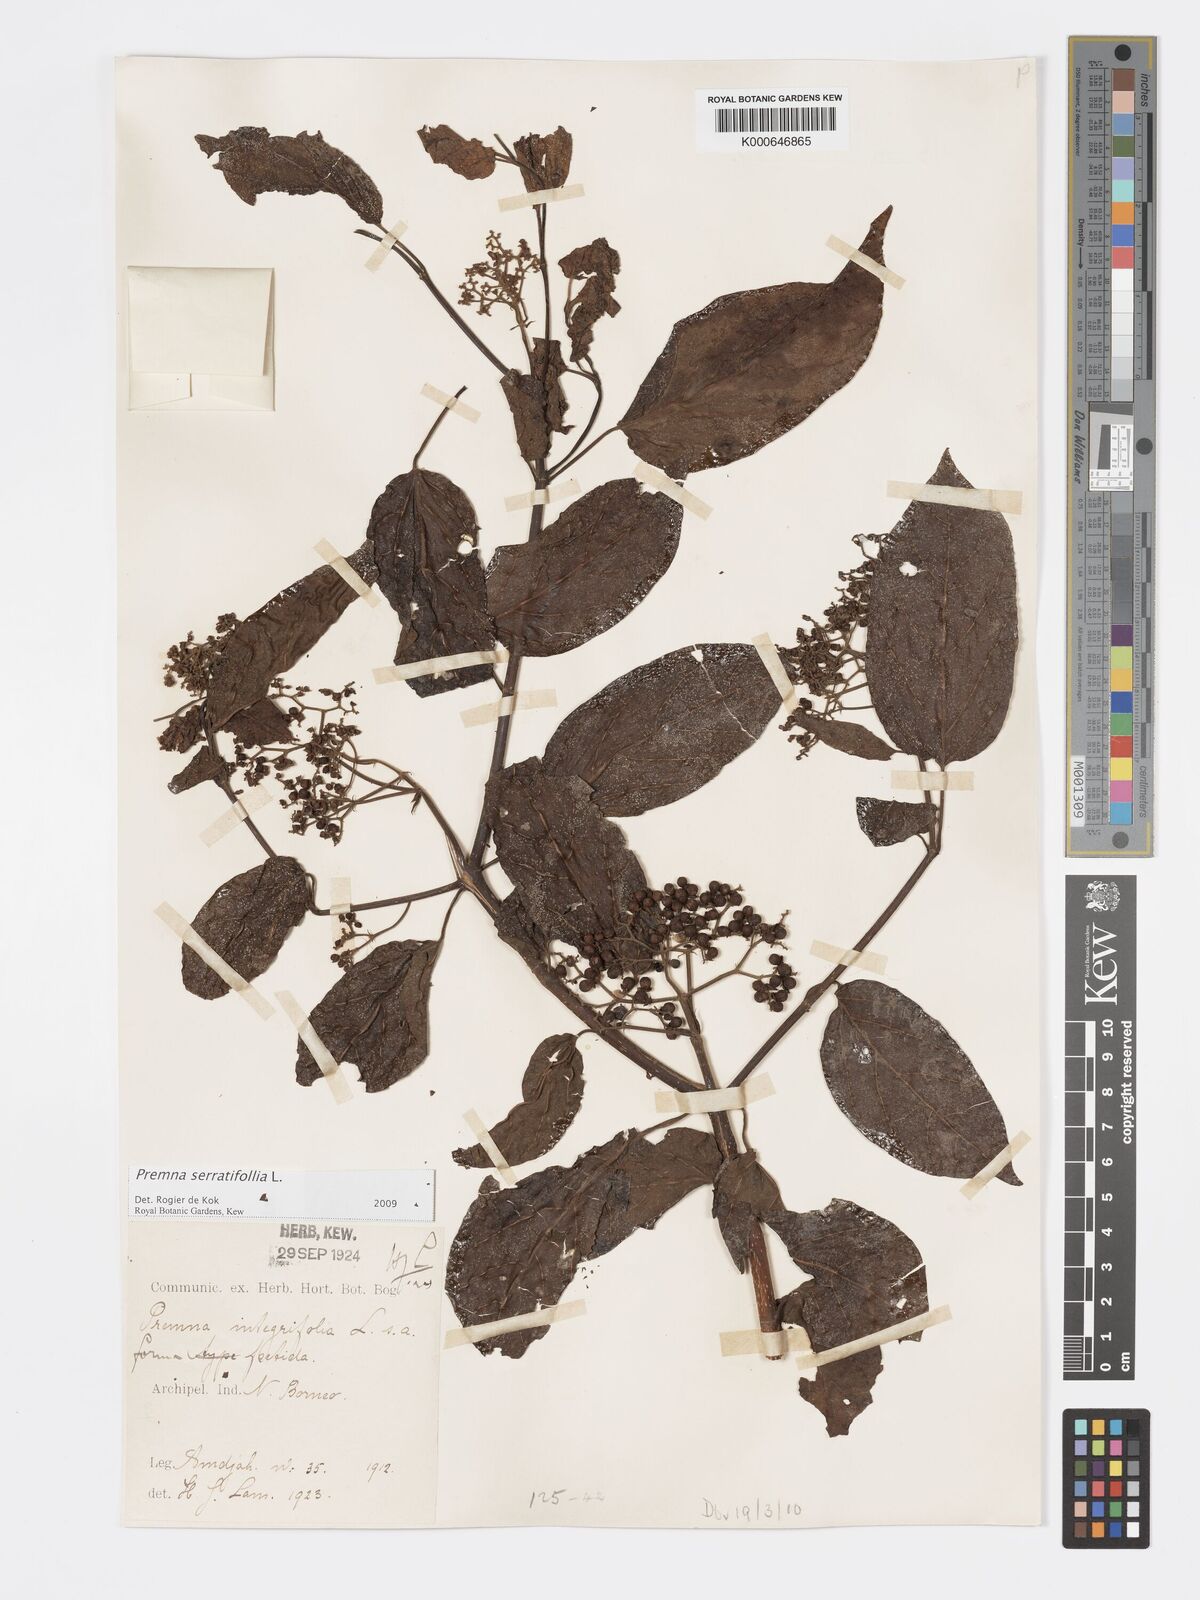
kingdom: Plantae
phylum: Tracheophyta
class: Magnoliopsida
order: Lamiales
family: Lamiaceae
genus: Premna
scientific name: Premna serratifolia
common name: Bastard guelder
